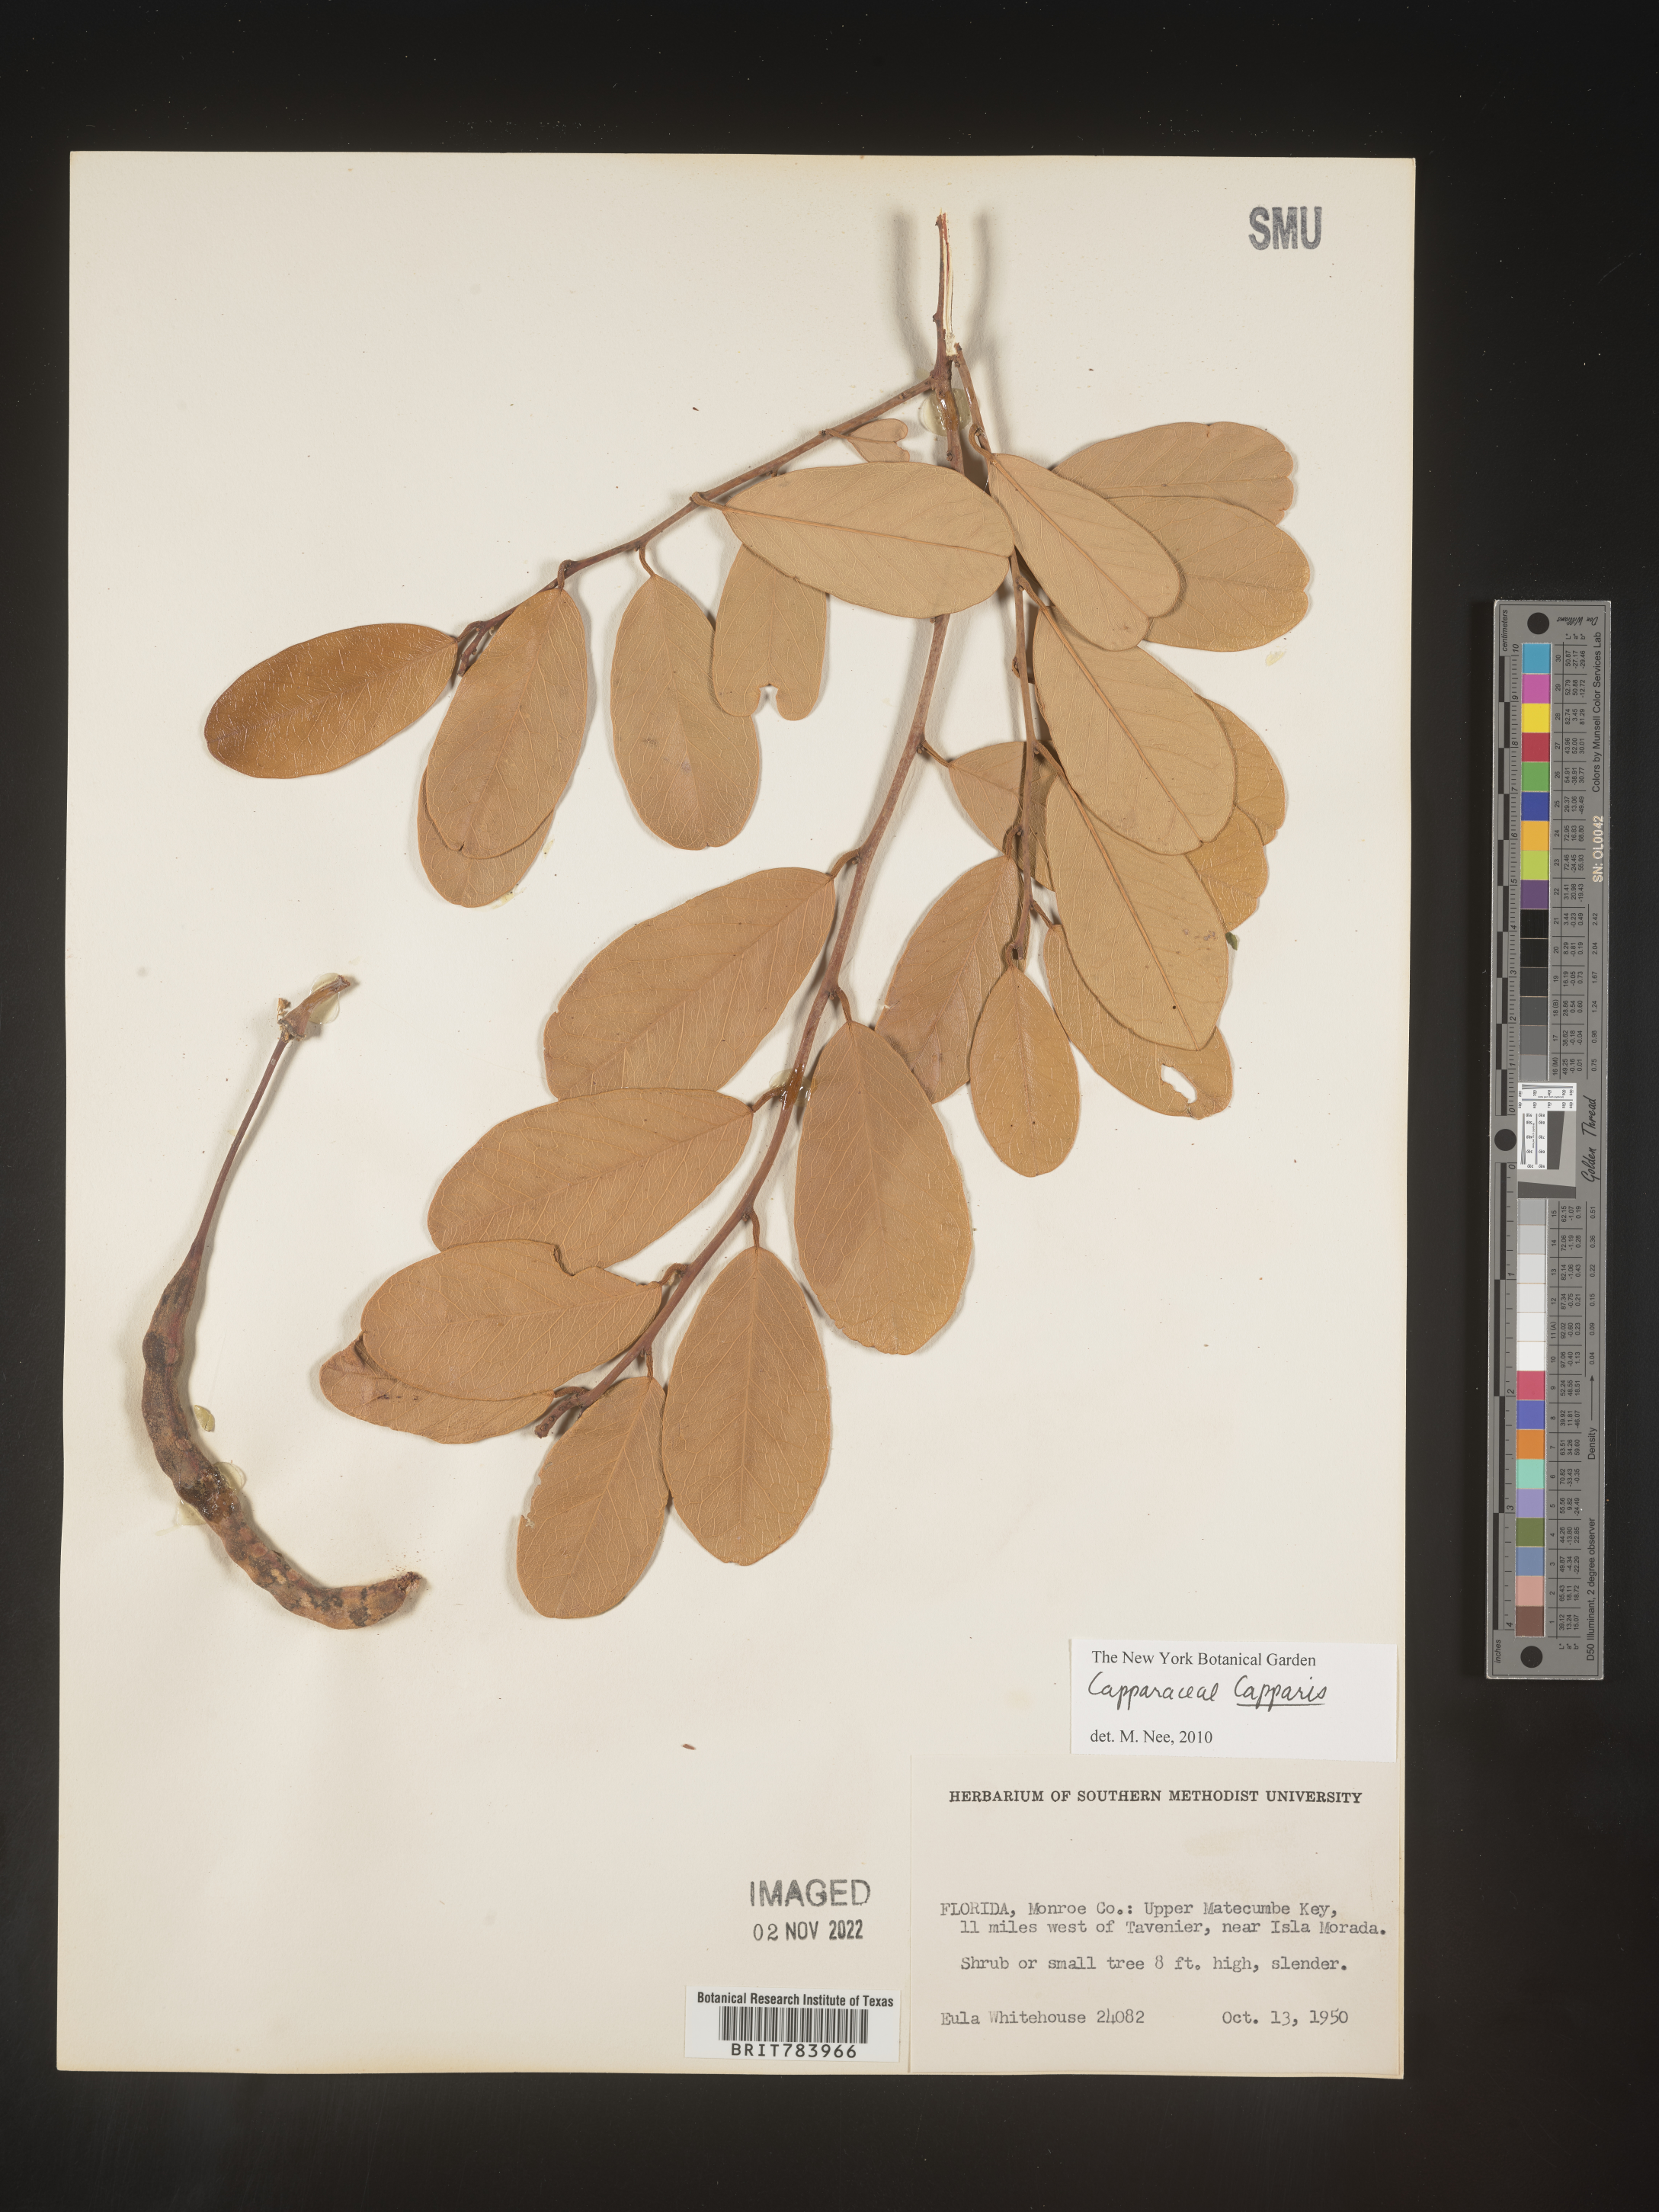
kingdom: Plantae
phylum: Tracheophyta
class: Magnoliopsida
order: Brassicales
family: Capparaceae
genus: Capparis
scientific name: Capparis
